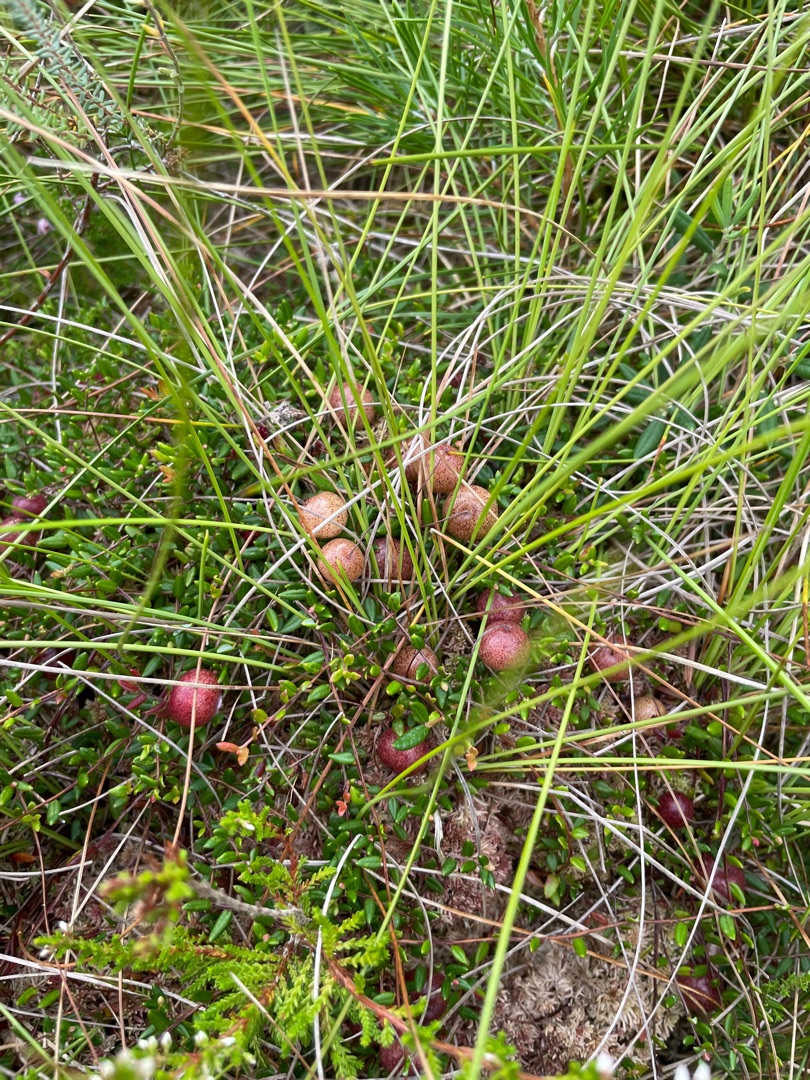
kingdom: Plantae
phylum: Tracheophyta
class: Magnoliopsida
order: Ericales
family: Ericaceae
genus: Vaccinium
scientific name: Vaccinium oxycoccos
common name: Tranebær
